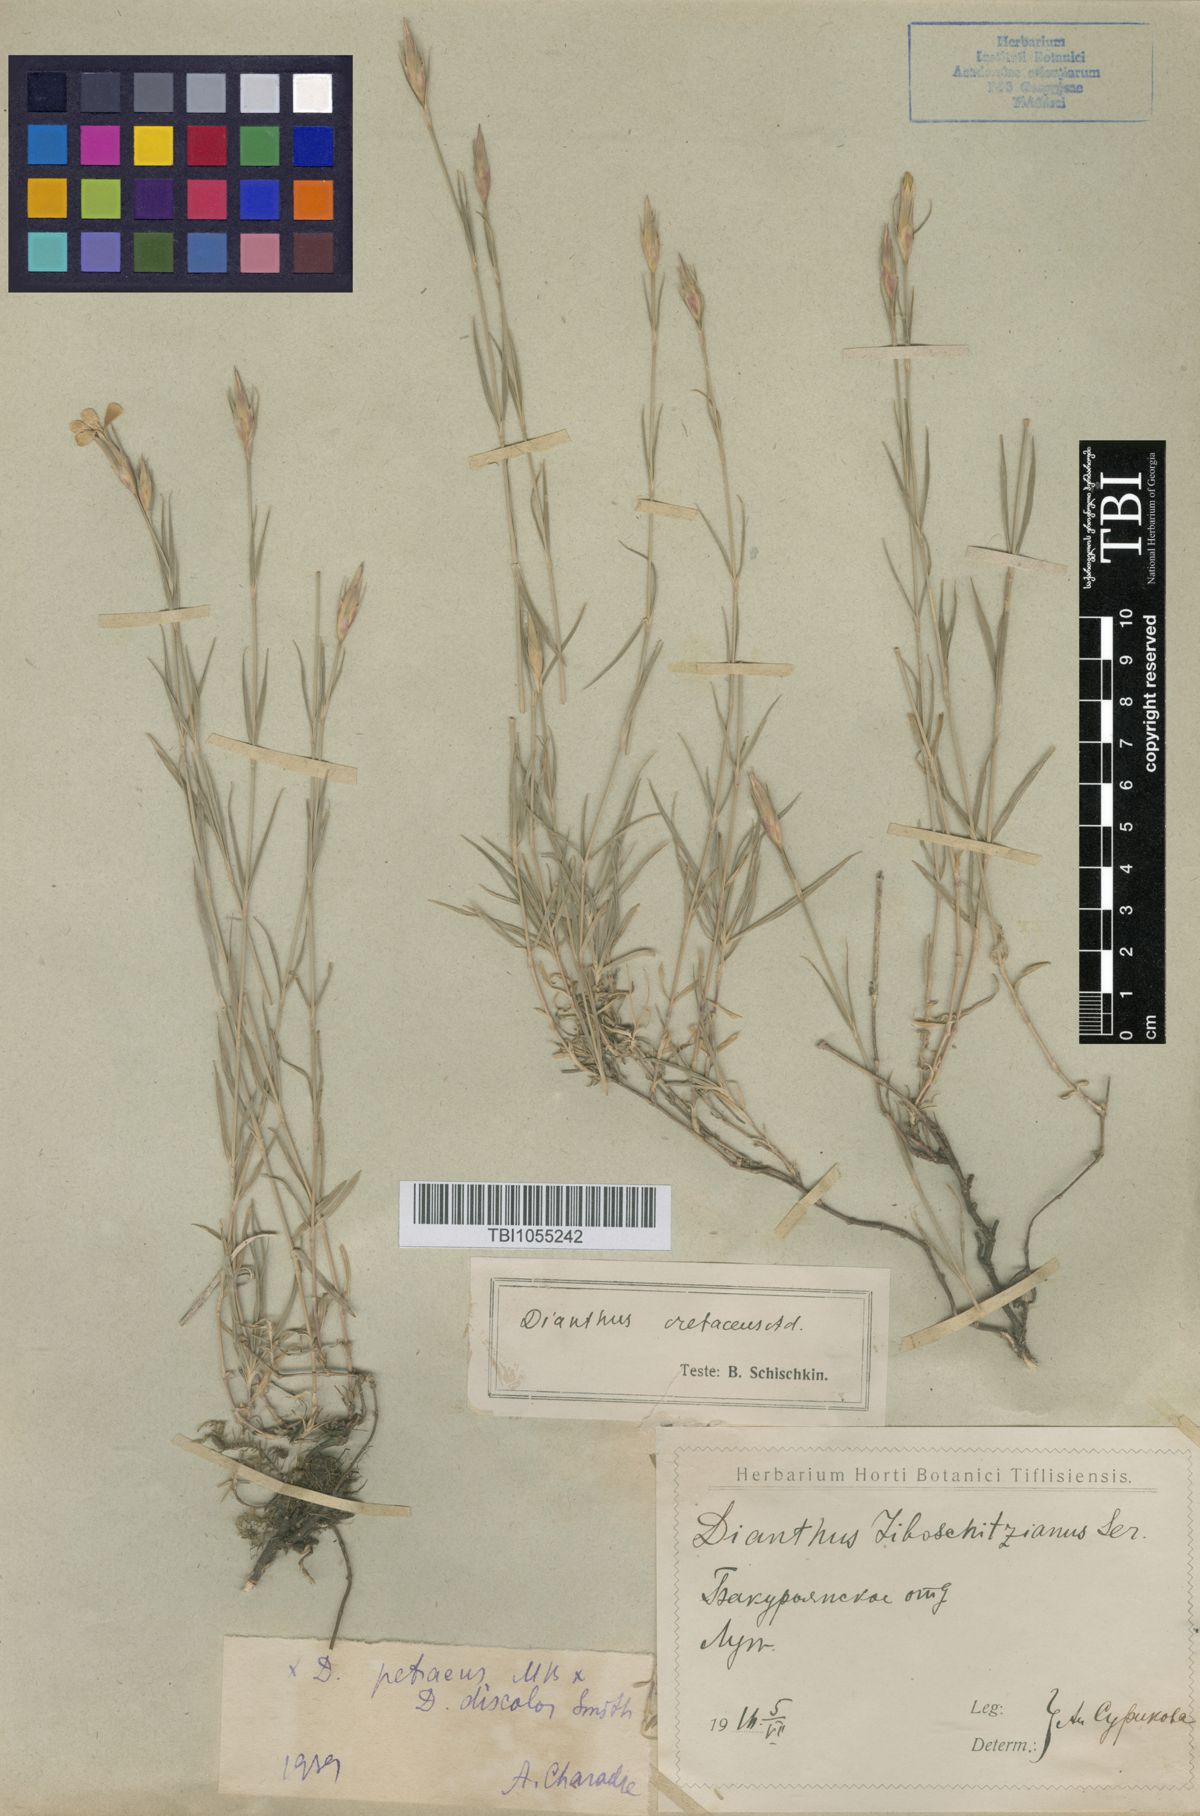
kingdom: Plantae
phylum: Tracheophyta
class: Magnoliopsida
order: Caryophyllales
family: Caryophyllaceae
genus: Dianthus
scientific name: Dianthus cretaceus
